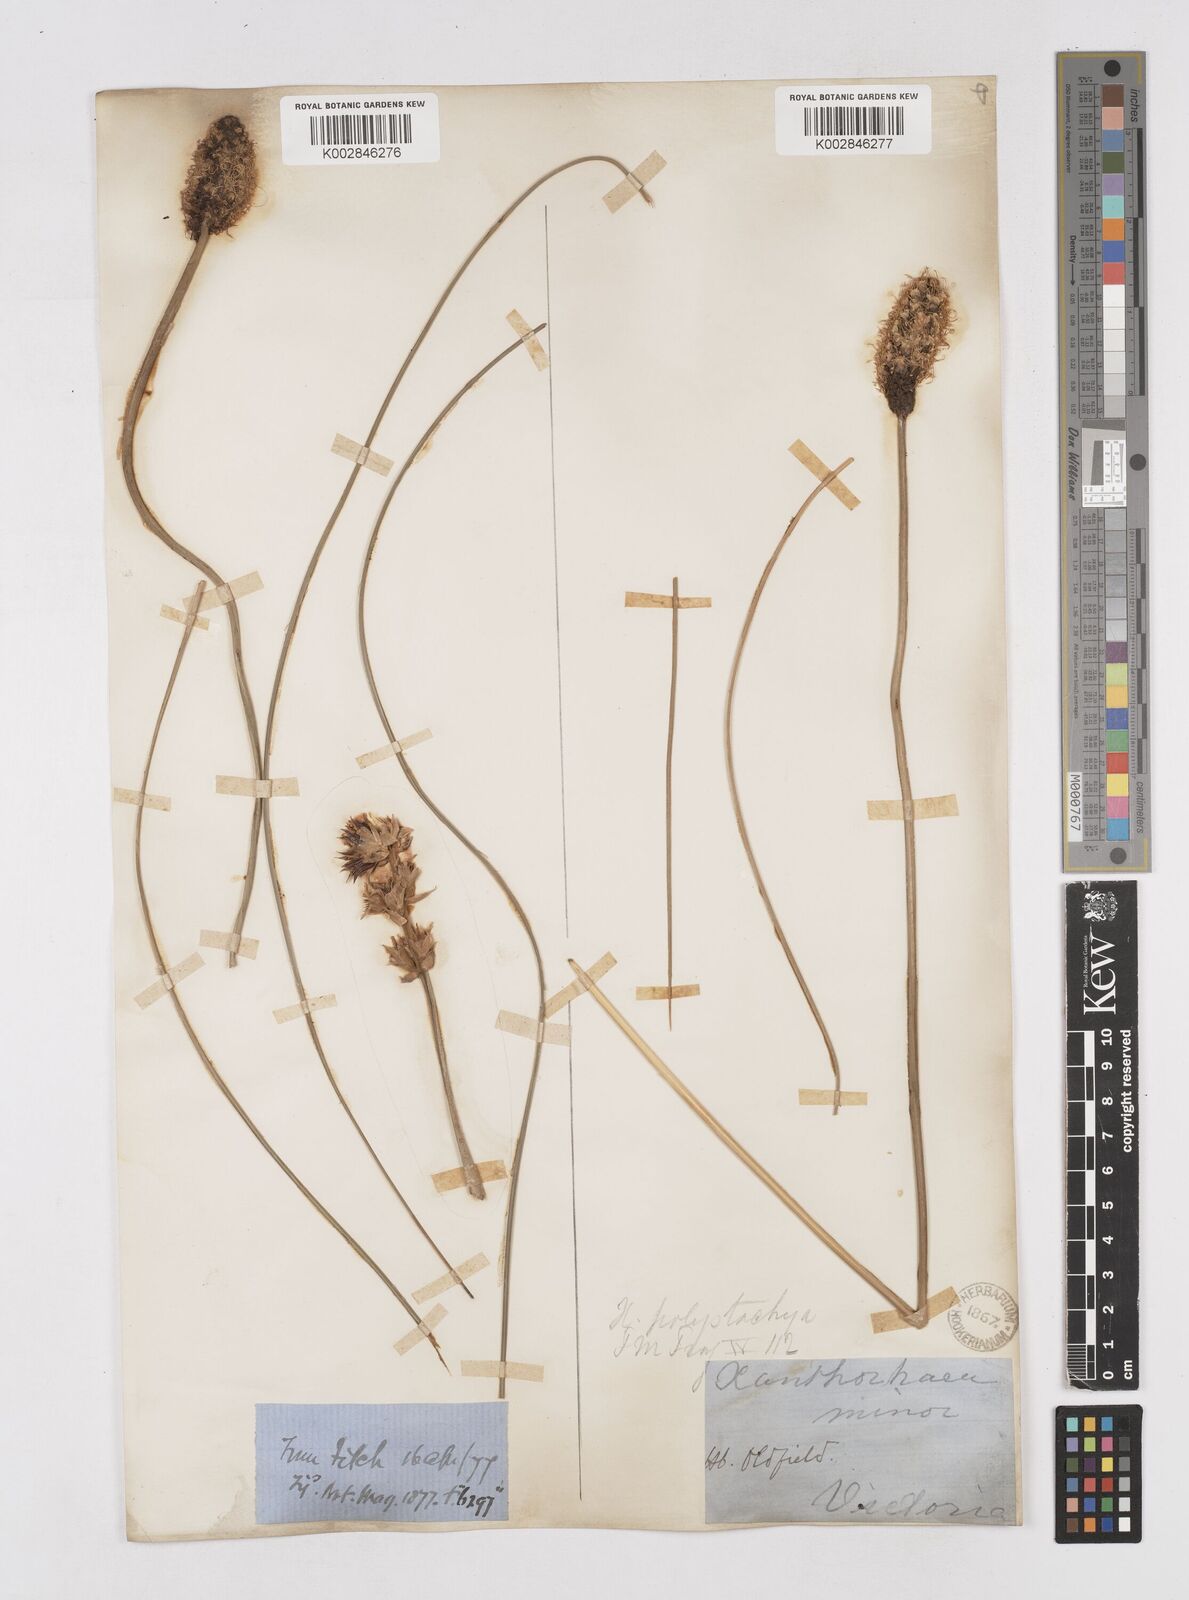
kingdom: Plantae
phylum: Tracheophyta
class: Liliopsida
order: Asparagales
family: Asphodelaceae
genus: Xanthorrhoea
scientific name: Xanthorrhoea minor
